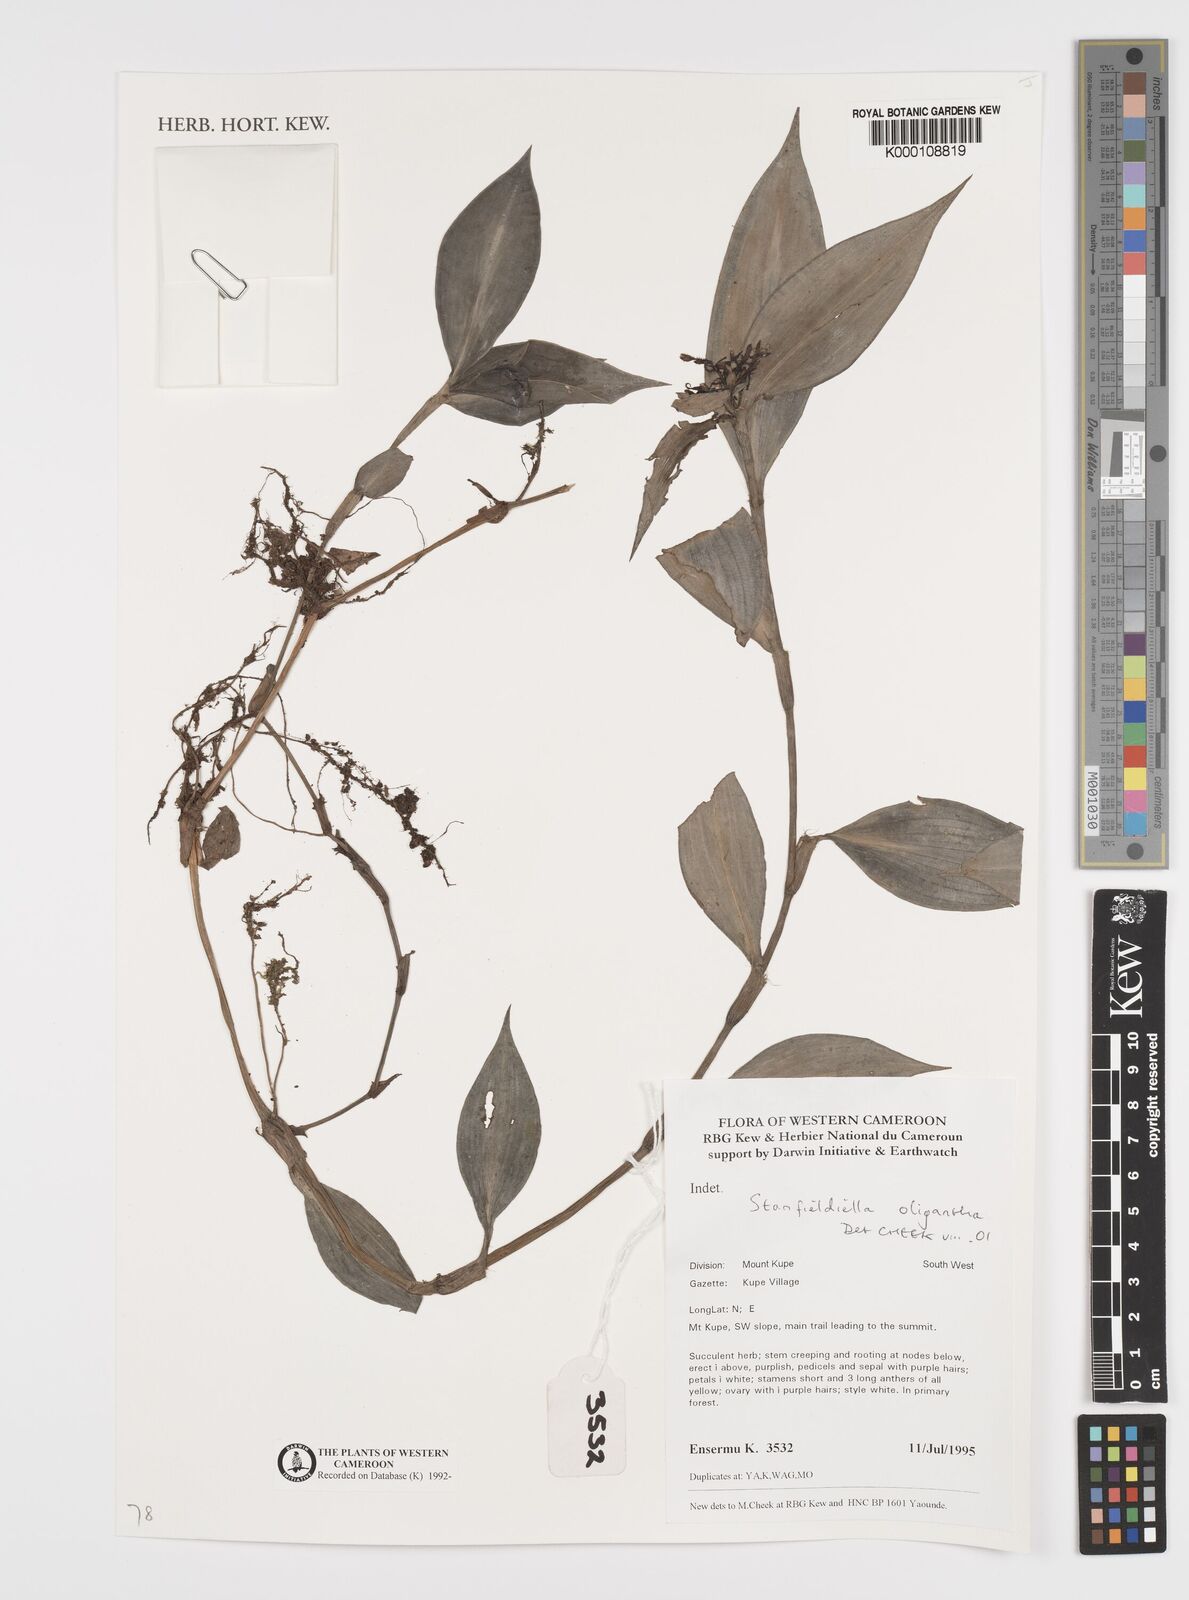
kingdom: Plantae
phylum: Tracheophyta
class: Liliopsida
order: Commelinales
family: Commelinaceae
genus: Stanfieldiella
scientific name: Stanfieldiella oligantha
